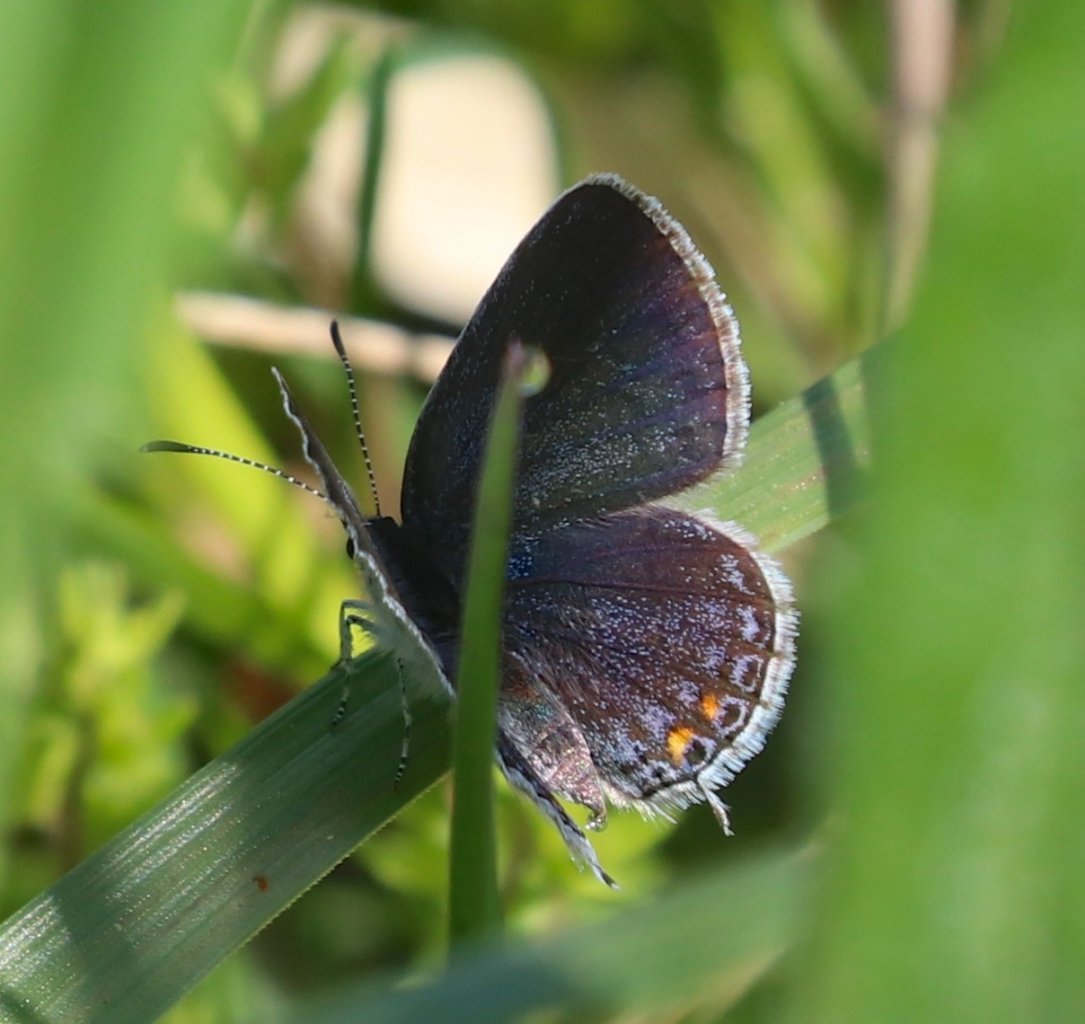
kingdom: Animalia
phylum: Arthropoda
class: Insecta
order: Lepidoptera
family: Lycaenidae
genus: Elkalyce
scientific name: Elkalyce comyntas
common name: Eastern Tailed-Blue
